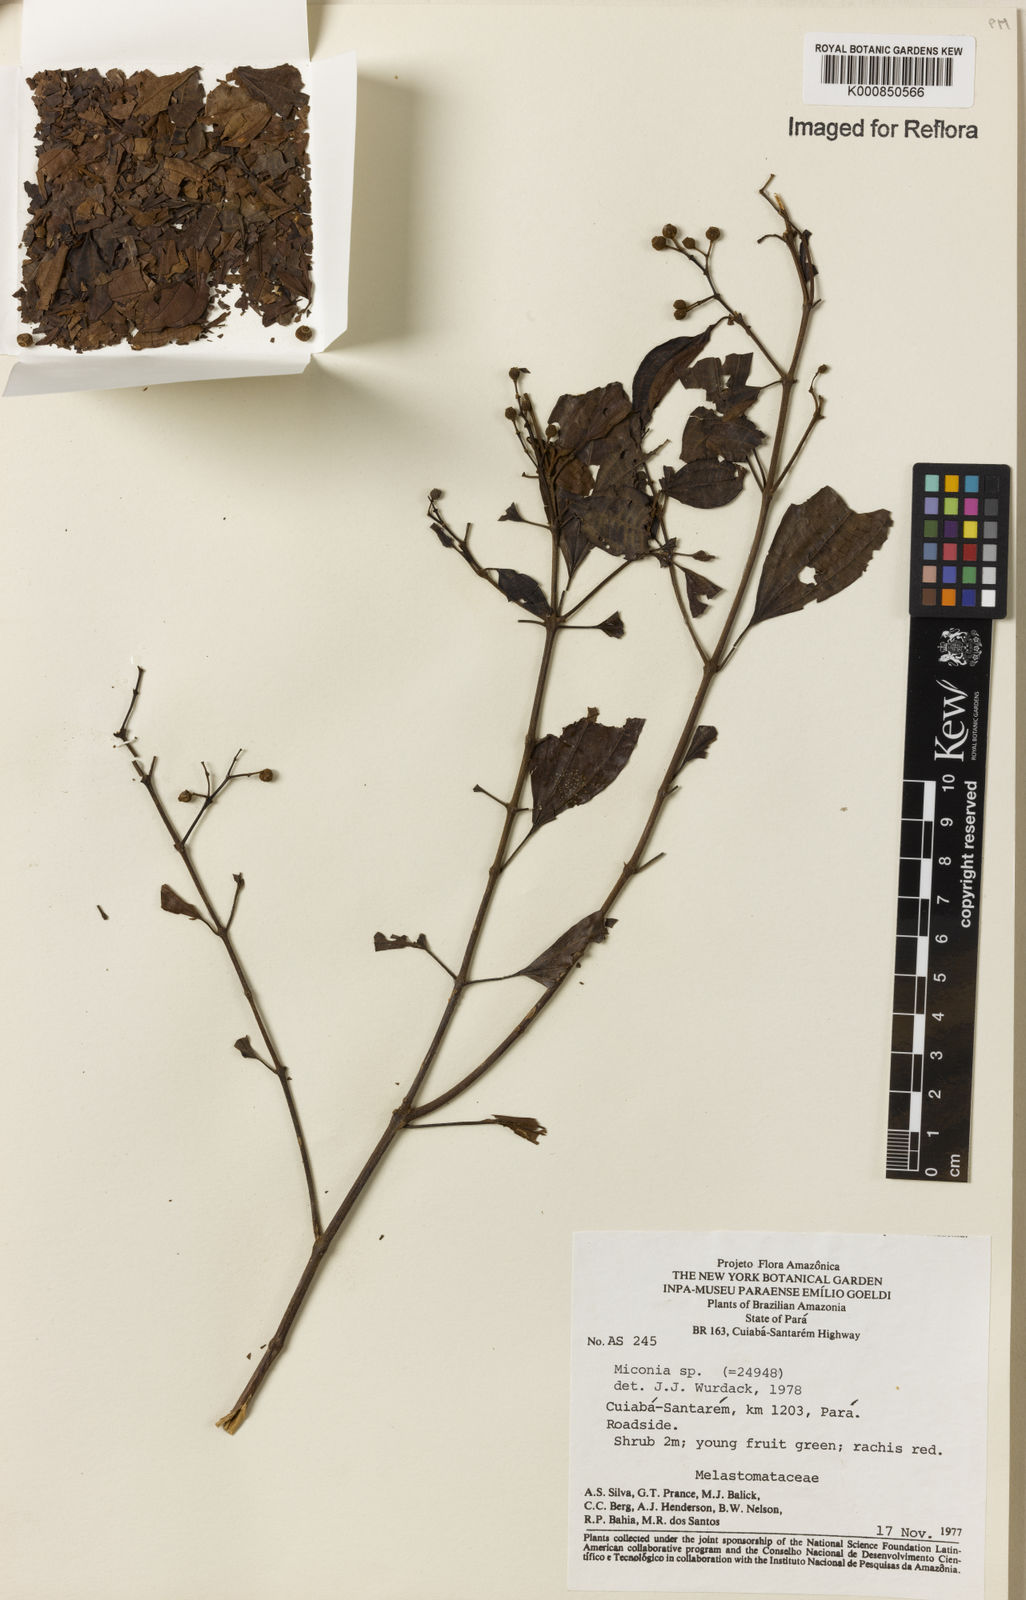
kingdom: Plantae
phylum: Tracheophyta
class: Magnoliopsida
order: Myrtales
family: Melastomataceae
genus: Miconia
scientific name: Miconia
